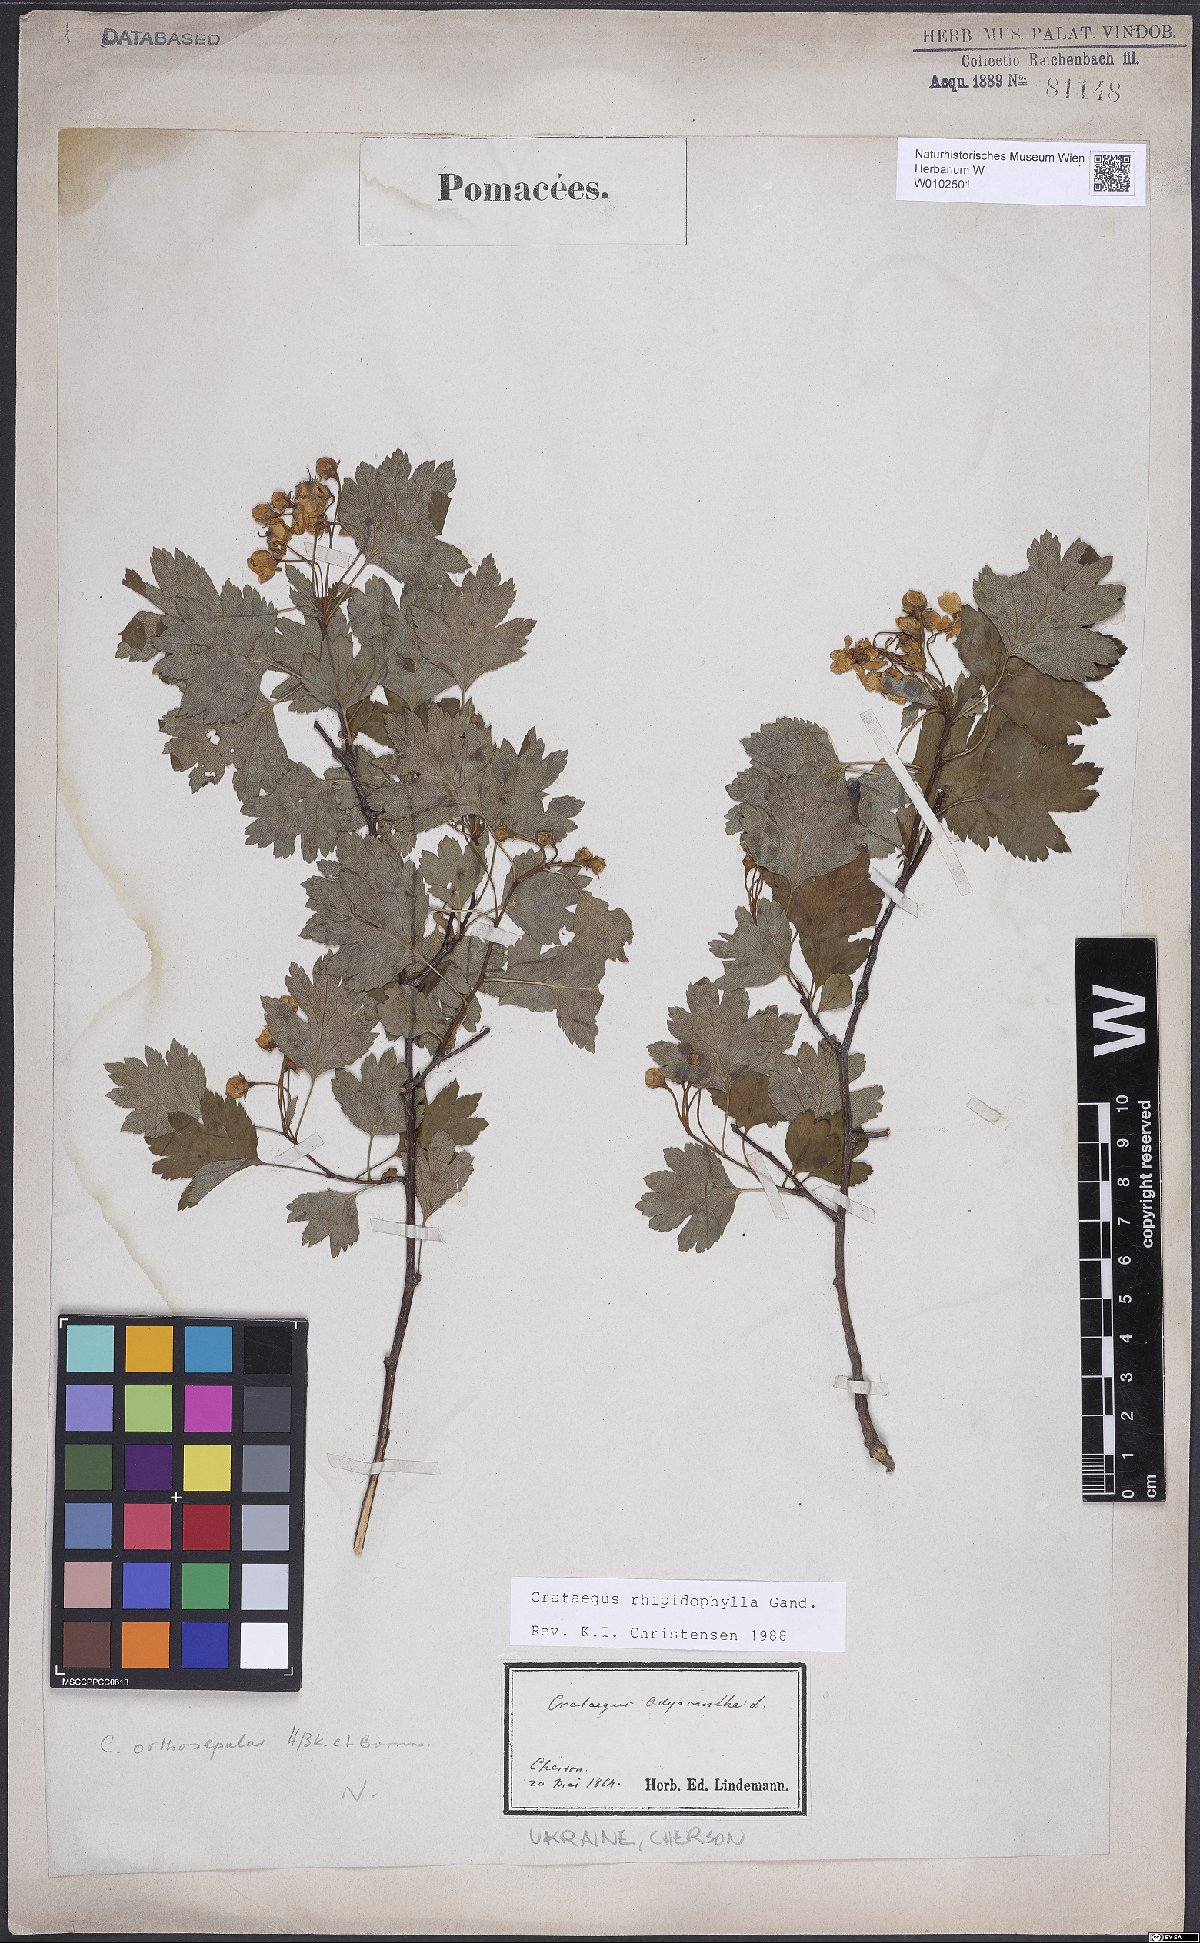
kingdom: Plantae
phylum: Tracheophyta
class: Magnoliopsida
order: Rosales
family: Rosaceae
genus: Crataegus
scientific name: Crataegus rhipidophylla
